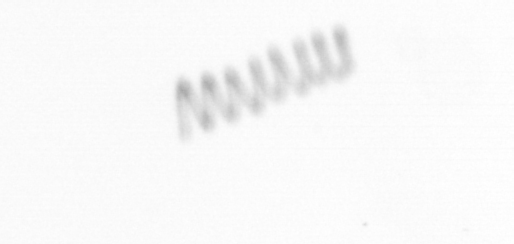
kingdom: Chromista
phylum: Ochrophyta
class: Bacillariophyceae
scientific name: Bacillariophyceae
